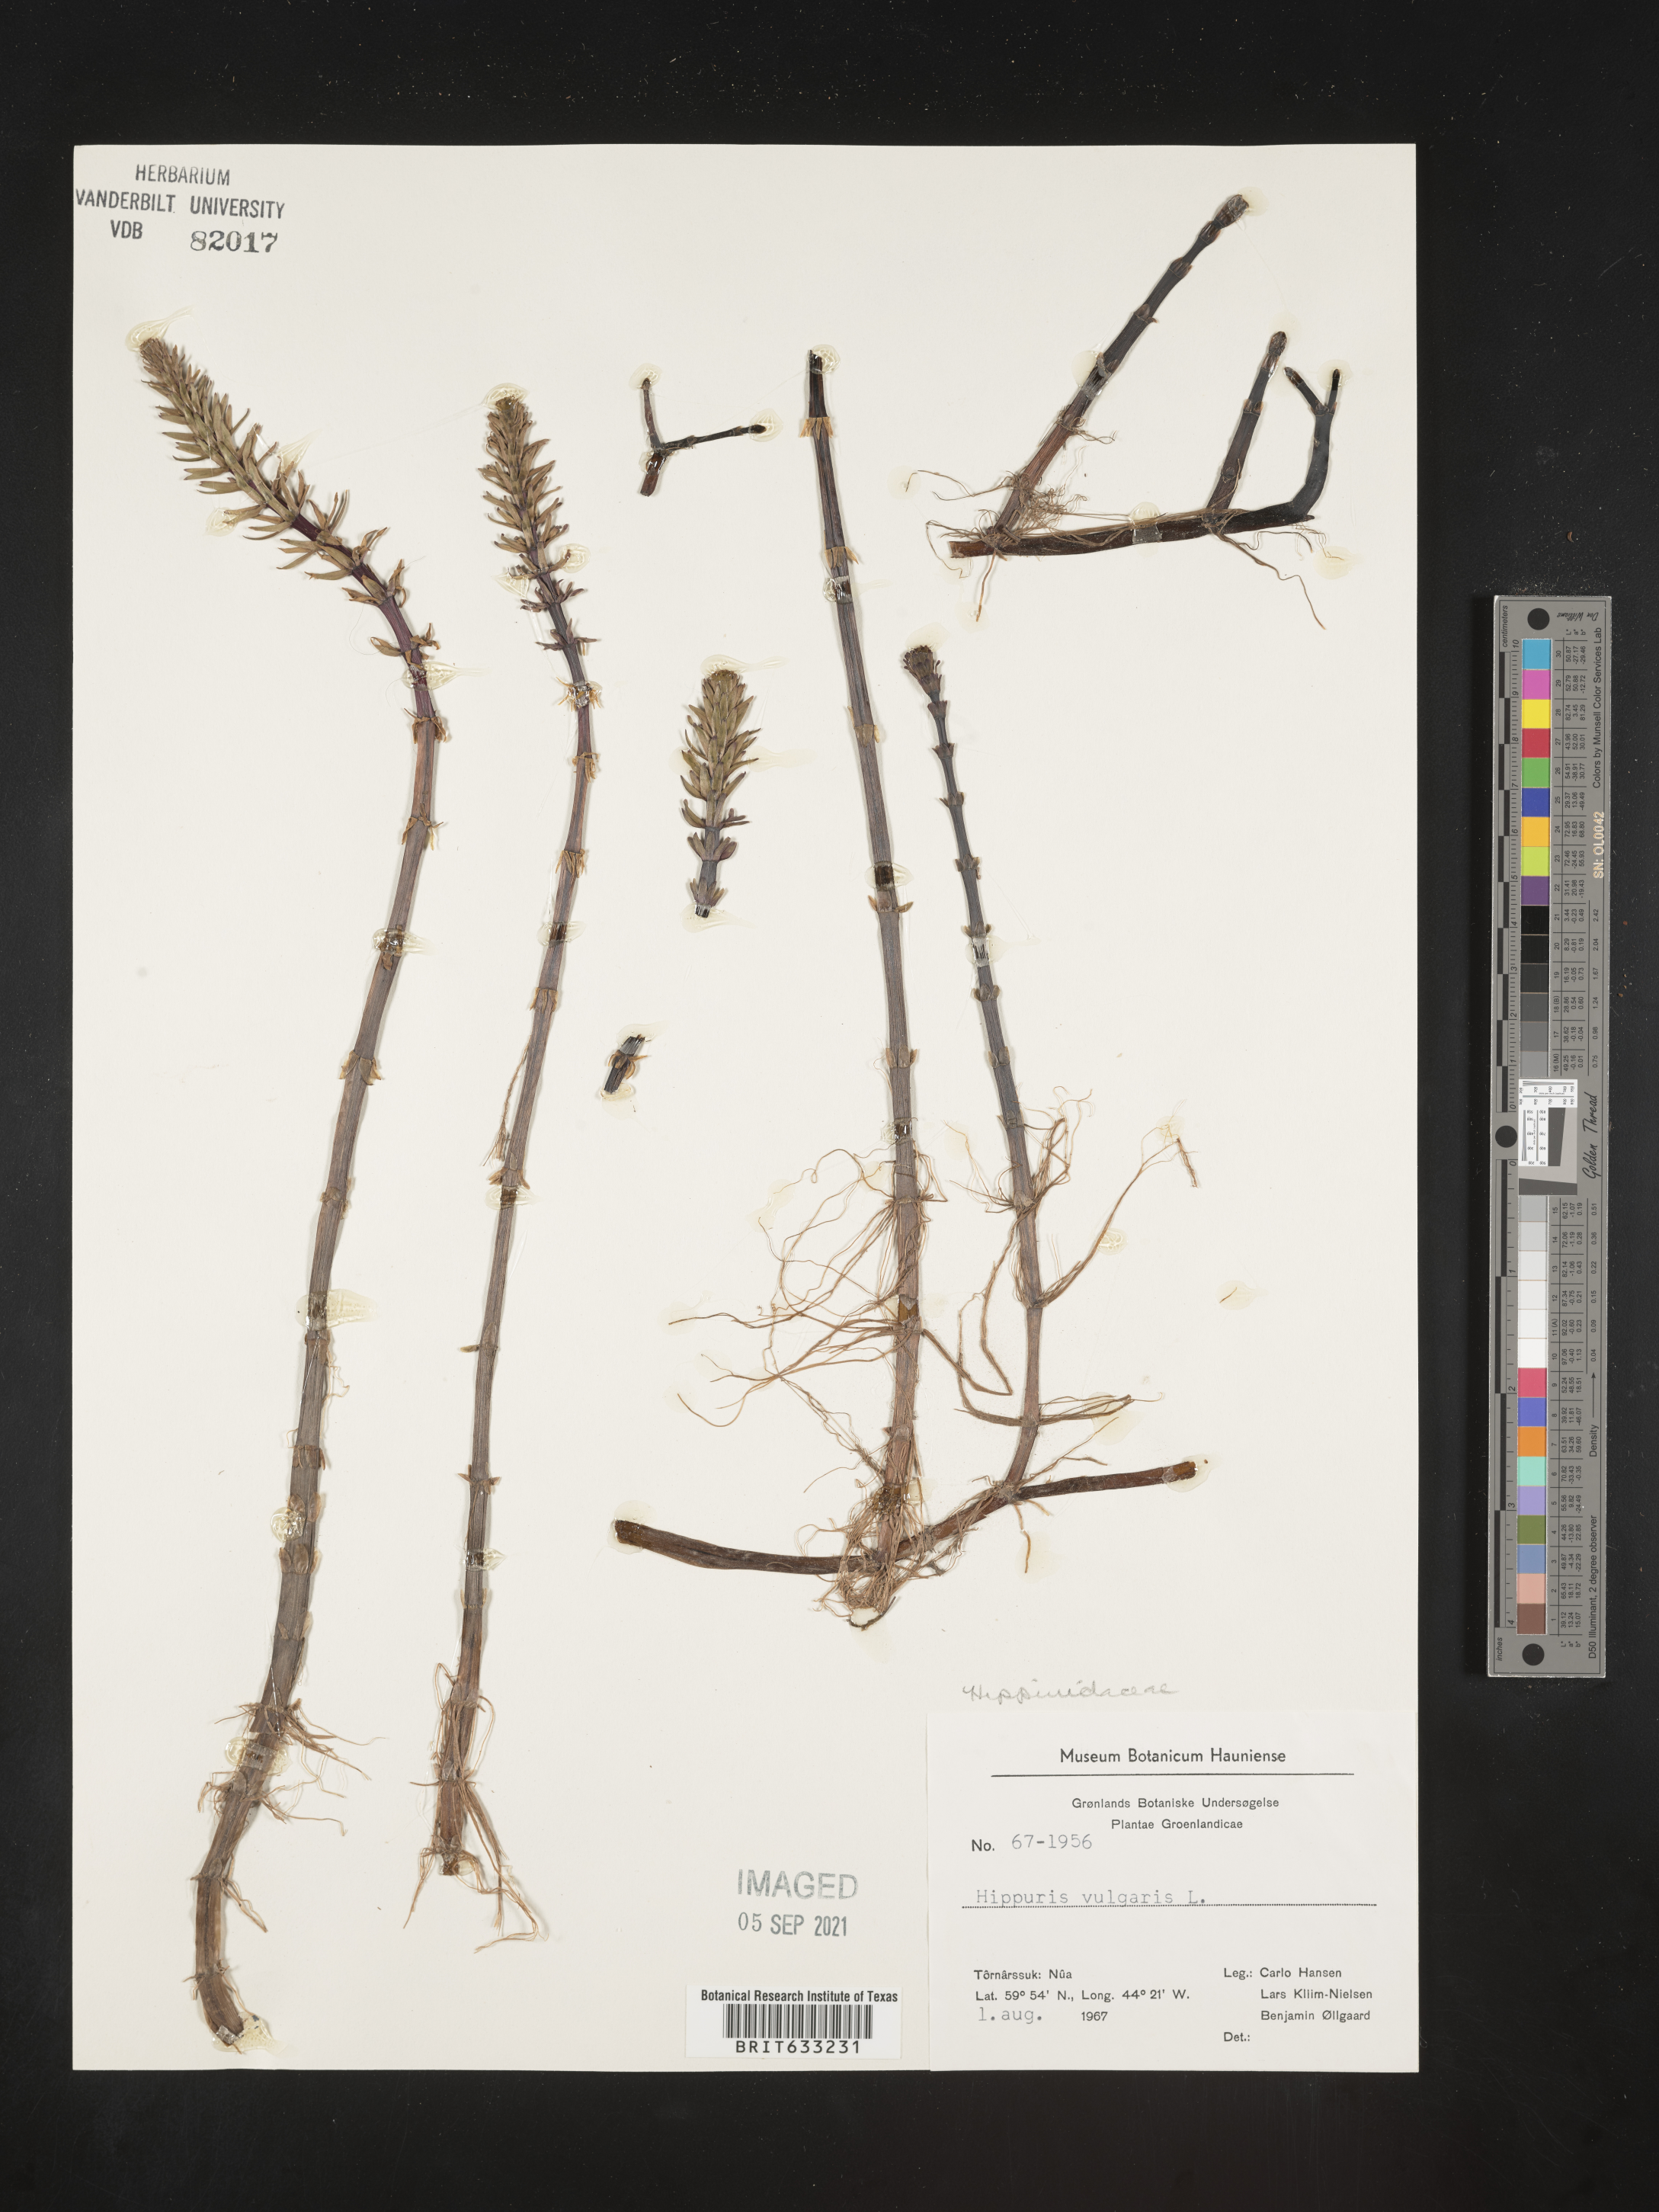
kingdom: Plantae
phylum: Tracheophyta
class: Magnoliopsida
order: Lamiales
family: Plantaginaceae
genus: Hippuris
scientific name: Hippuris
